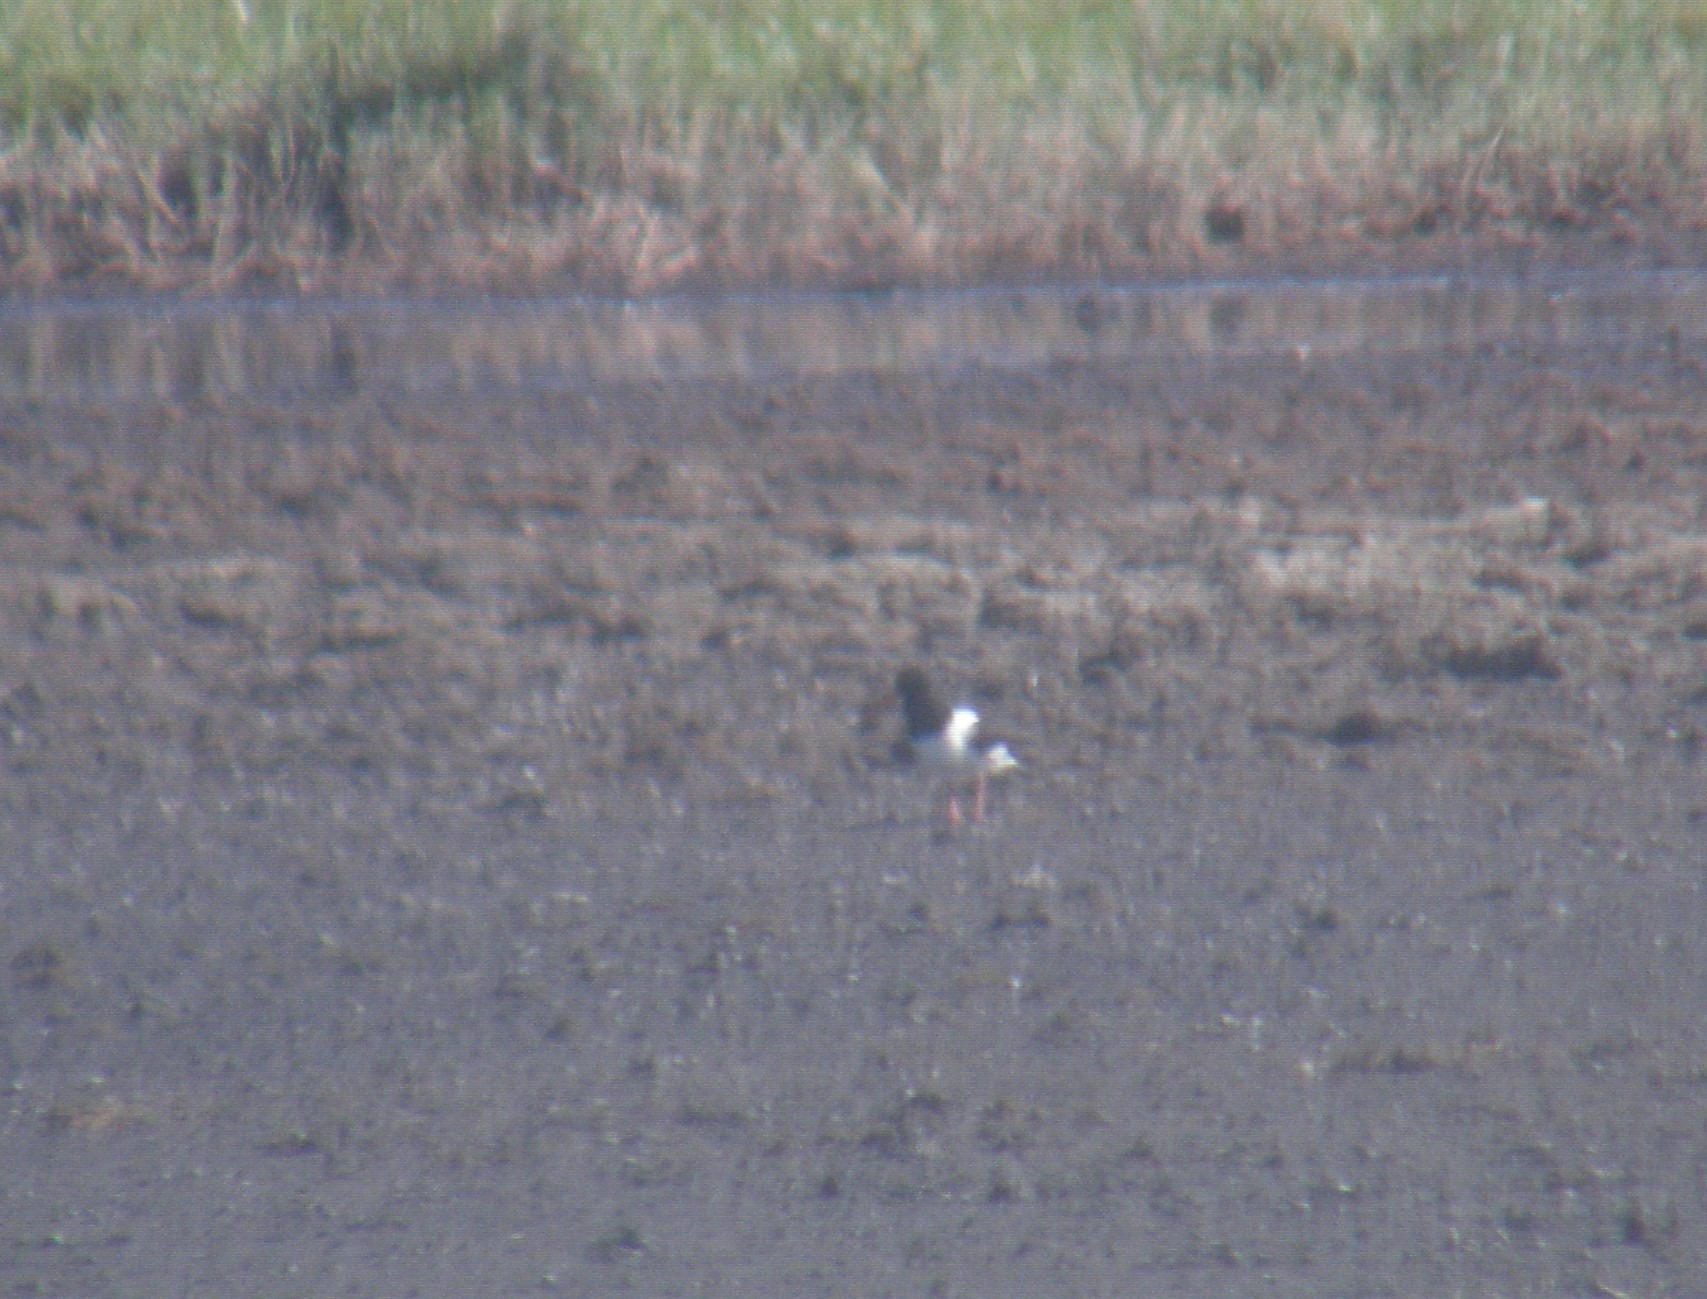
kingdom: Animalia
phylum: Chordata
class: Aves
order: Charadriiformes
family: Haematopodidae
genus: Haematopus
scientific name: Haematopus ostralegus
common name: Strandskade
